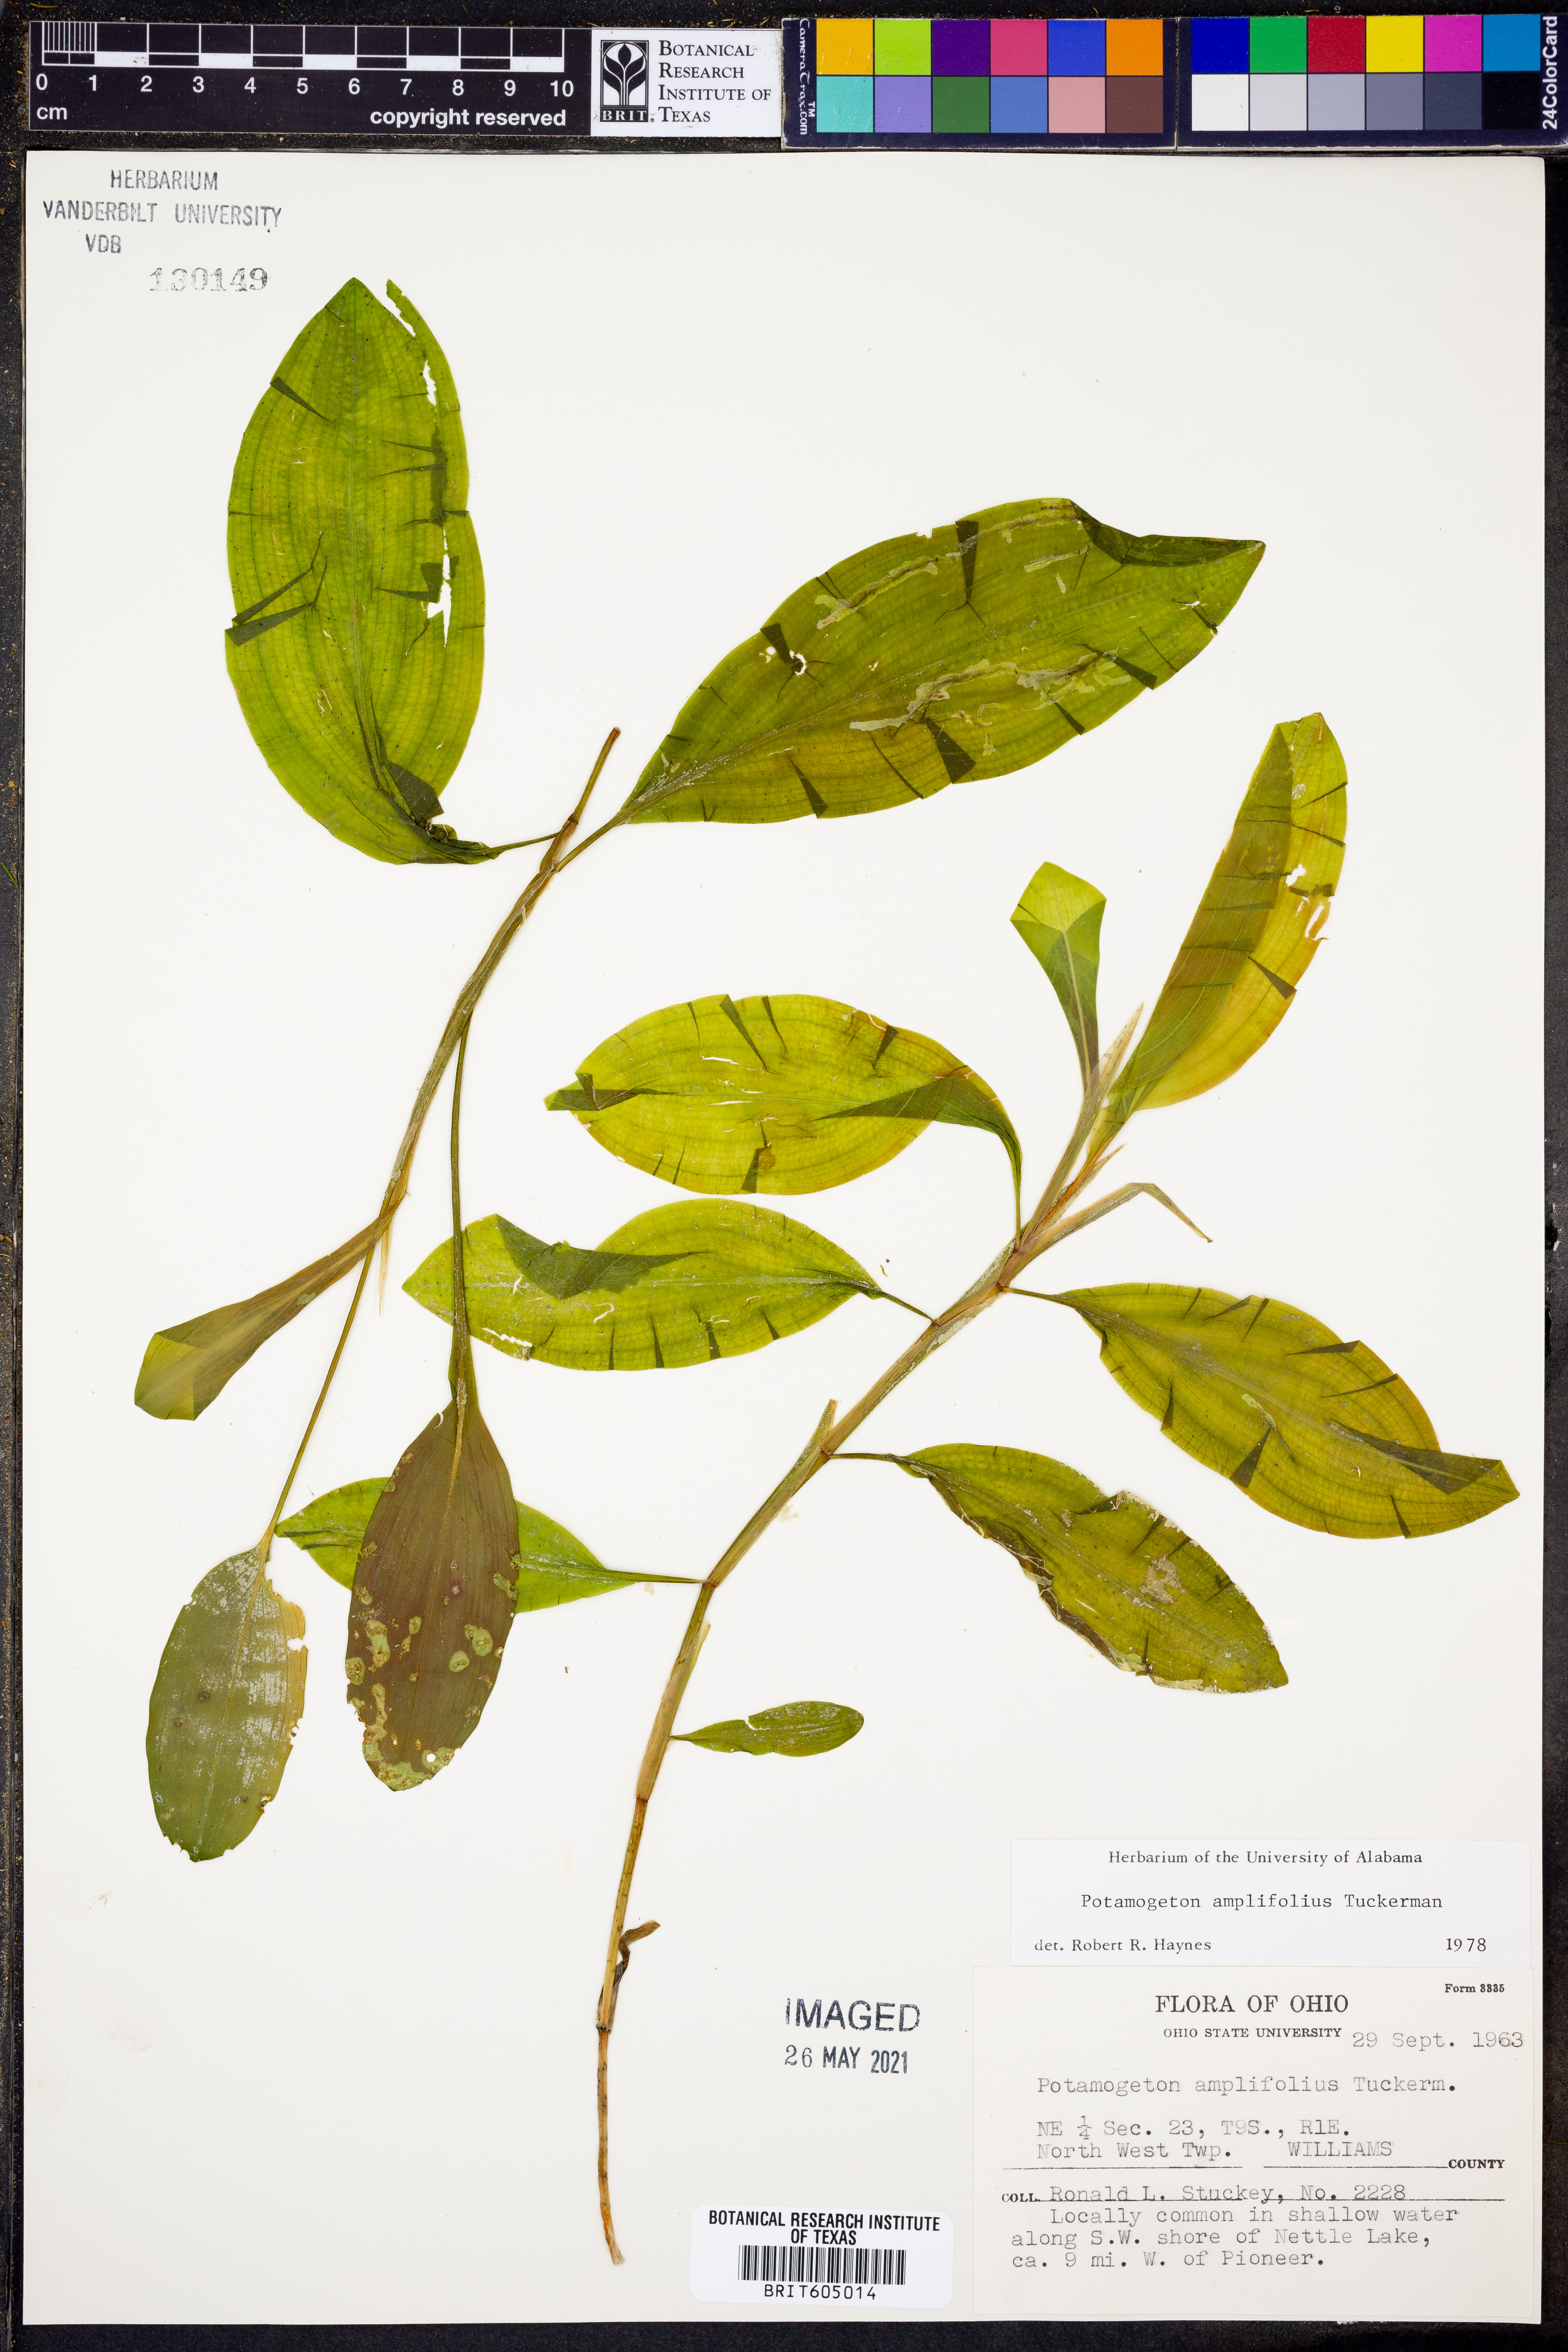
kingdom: Plantae
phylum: Tracheophyta
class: Liliopsida
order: Alismatales
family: Potamogetonaceae
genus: Potamogeton
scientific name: Potamogeton amplifolius
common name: Broad-leaved pondweed
